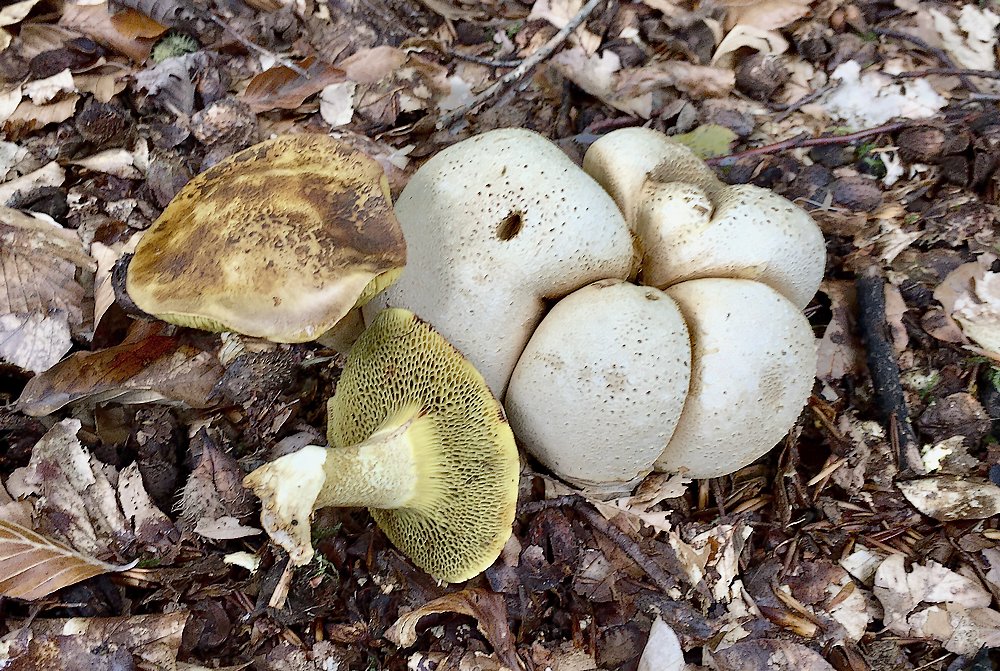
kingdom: Fungi
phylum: Basidiomycota
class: Agaricomycetes
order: Boletales
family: Boletaceae
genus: Pseudoboletus
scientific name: Pseudoboletus parasiticus
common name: snyltende rørhat
